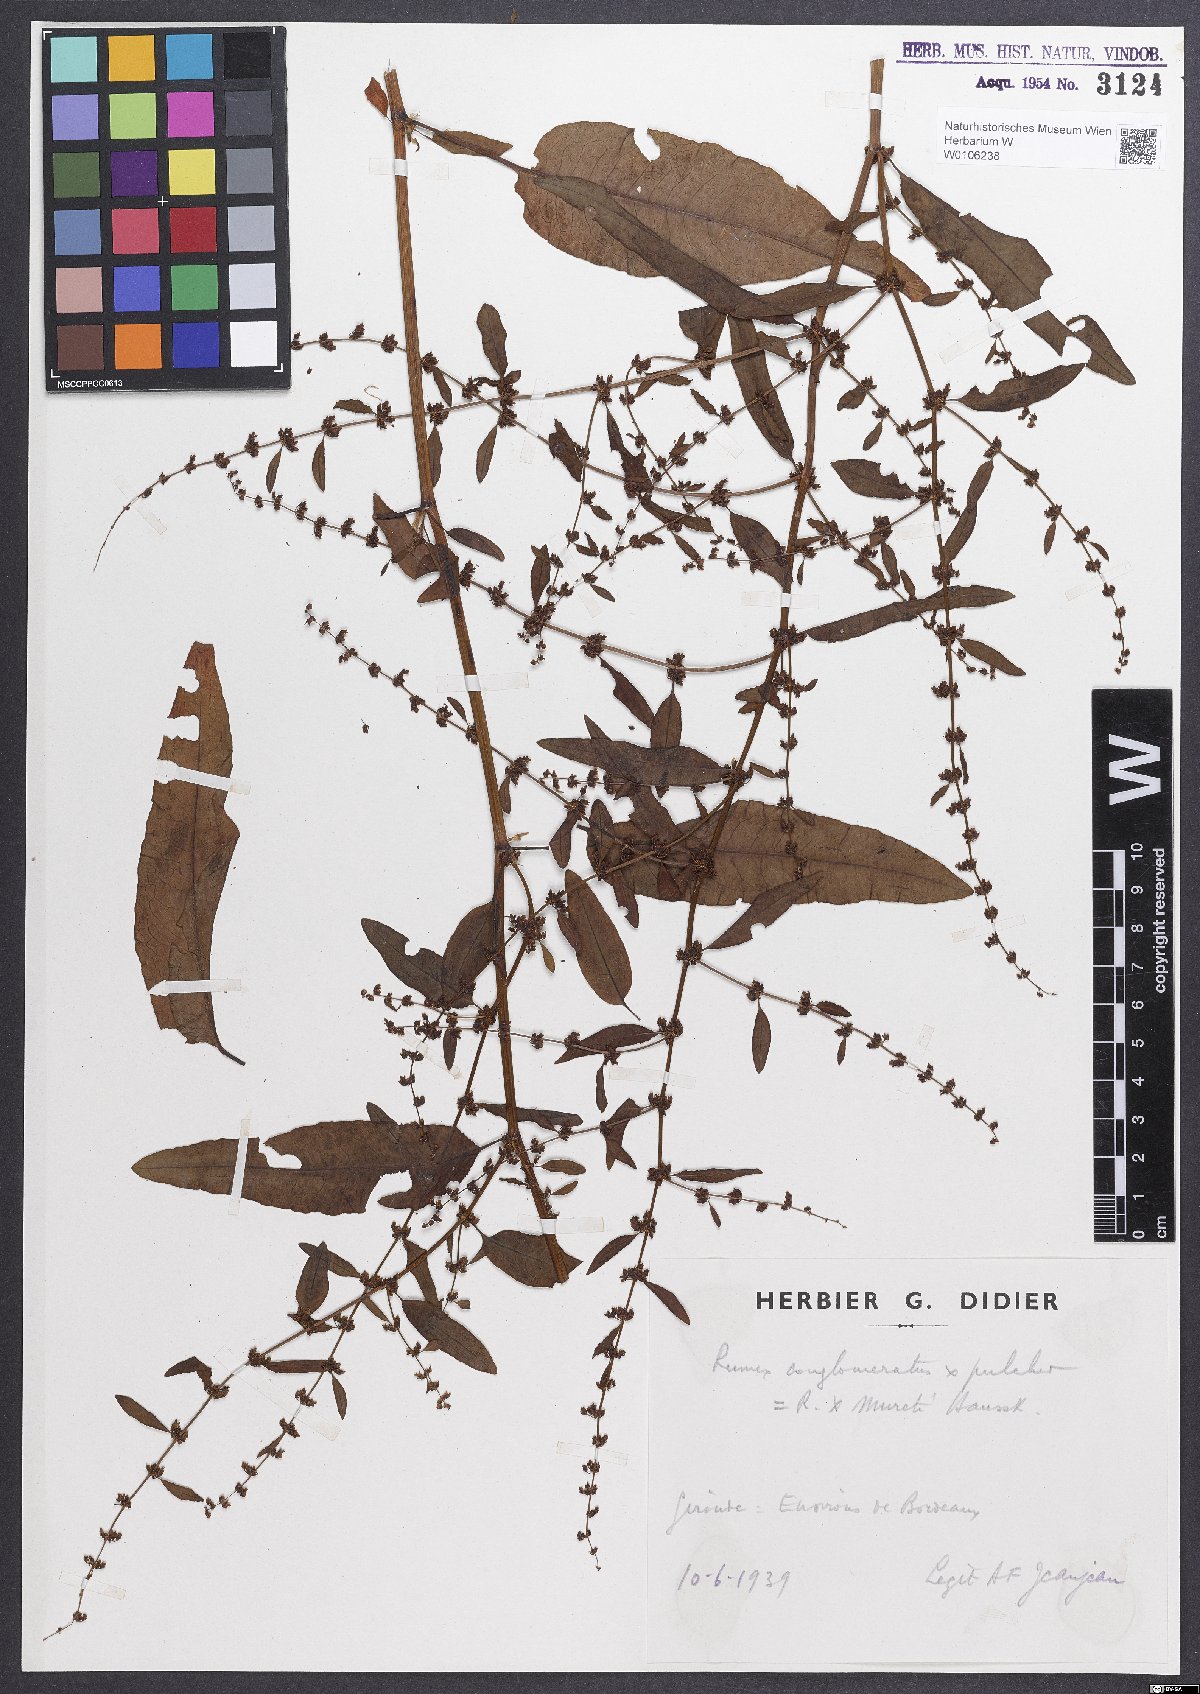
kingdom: Plantae
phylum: Tracheophyta
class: Magnoliopsida
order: Caryophyllales
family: Polygonaceae
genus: Rumex
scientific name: Rumex
